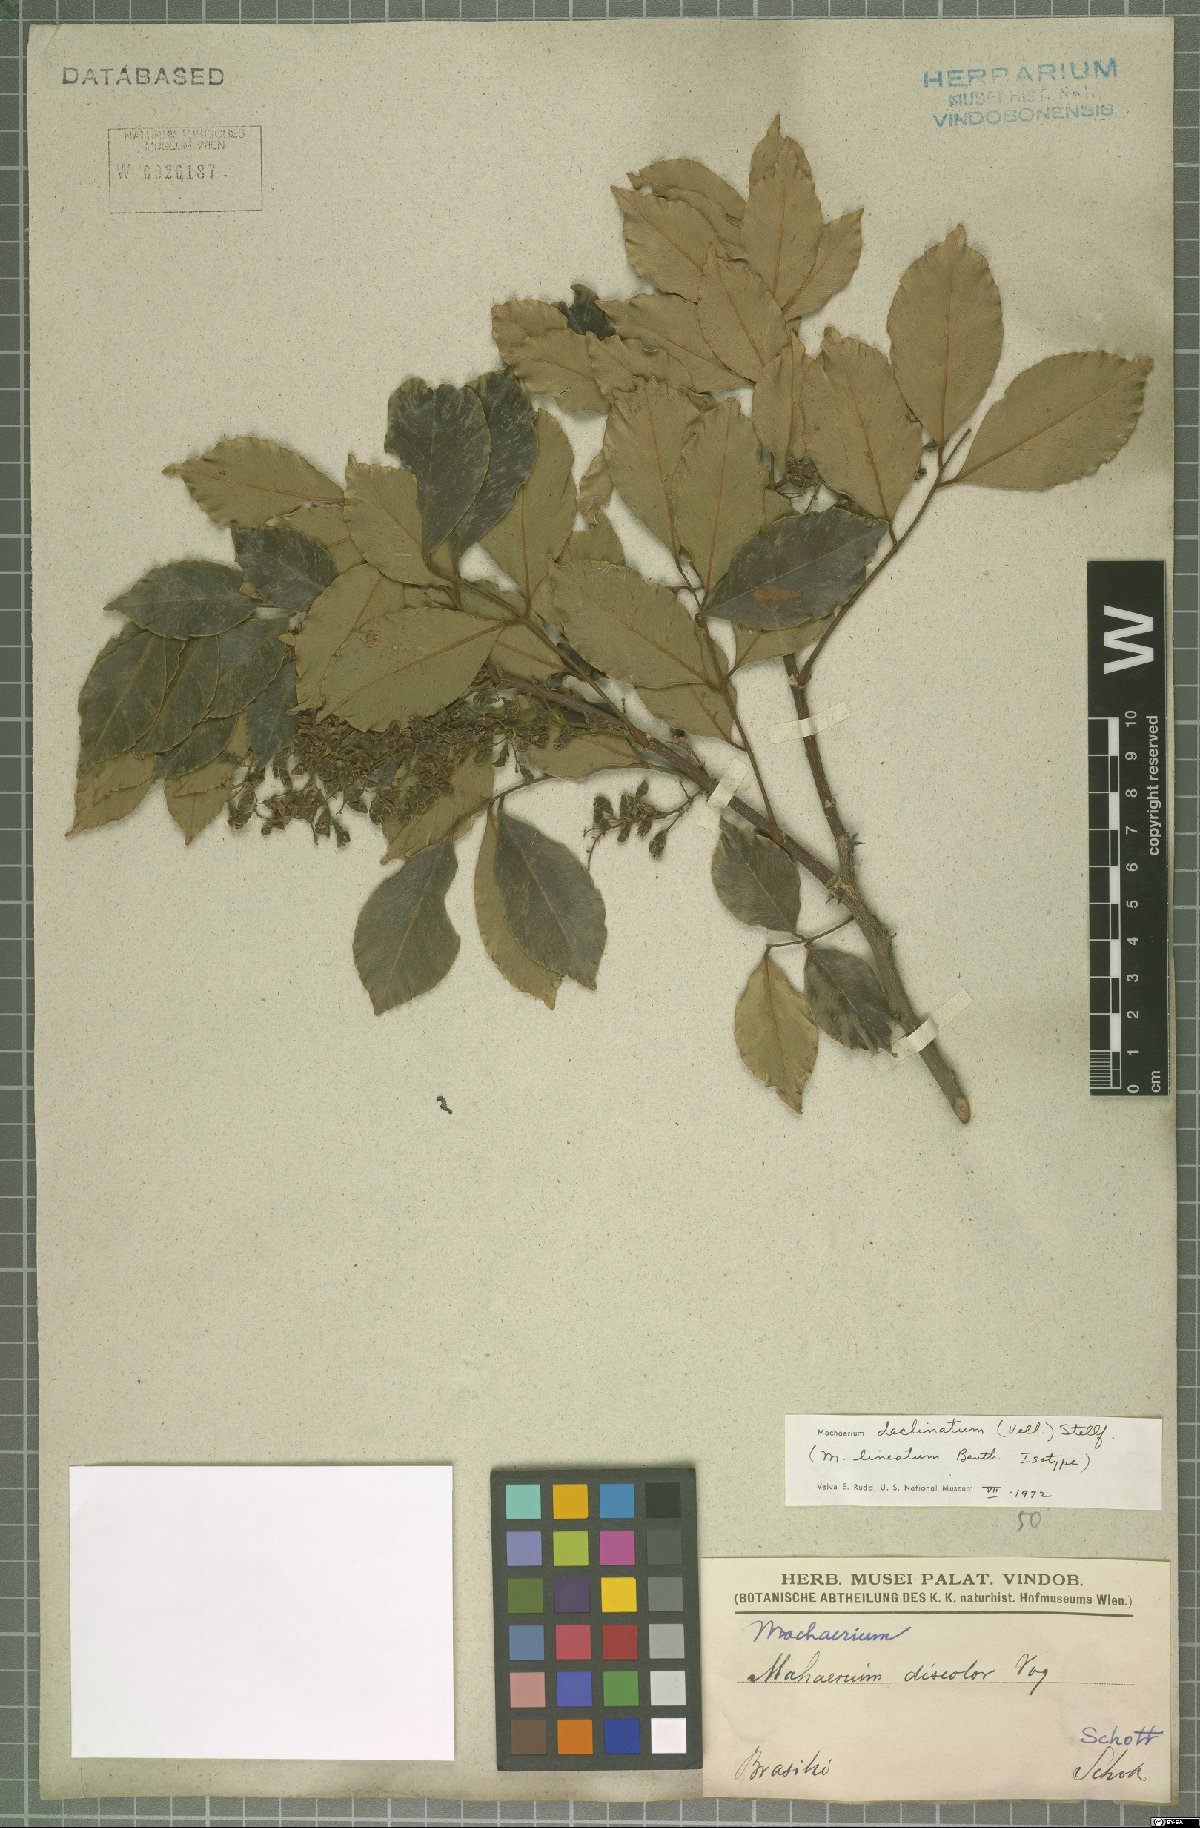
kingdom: Plantae
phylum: Tracheophyta
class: Magnoliopsida
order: Fabales
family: Fabaceae
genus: Machaerium
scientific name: Machaerium declinatum
